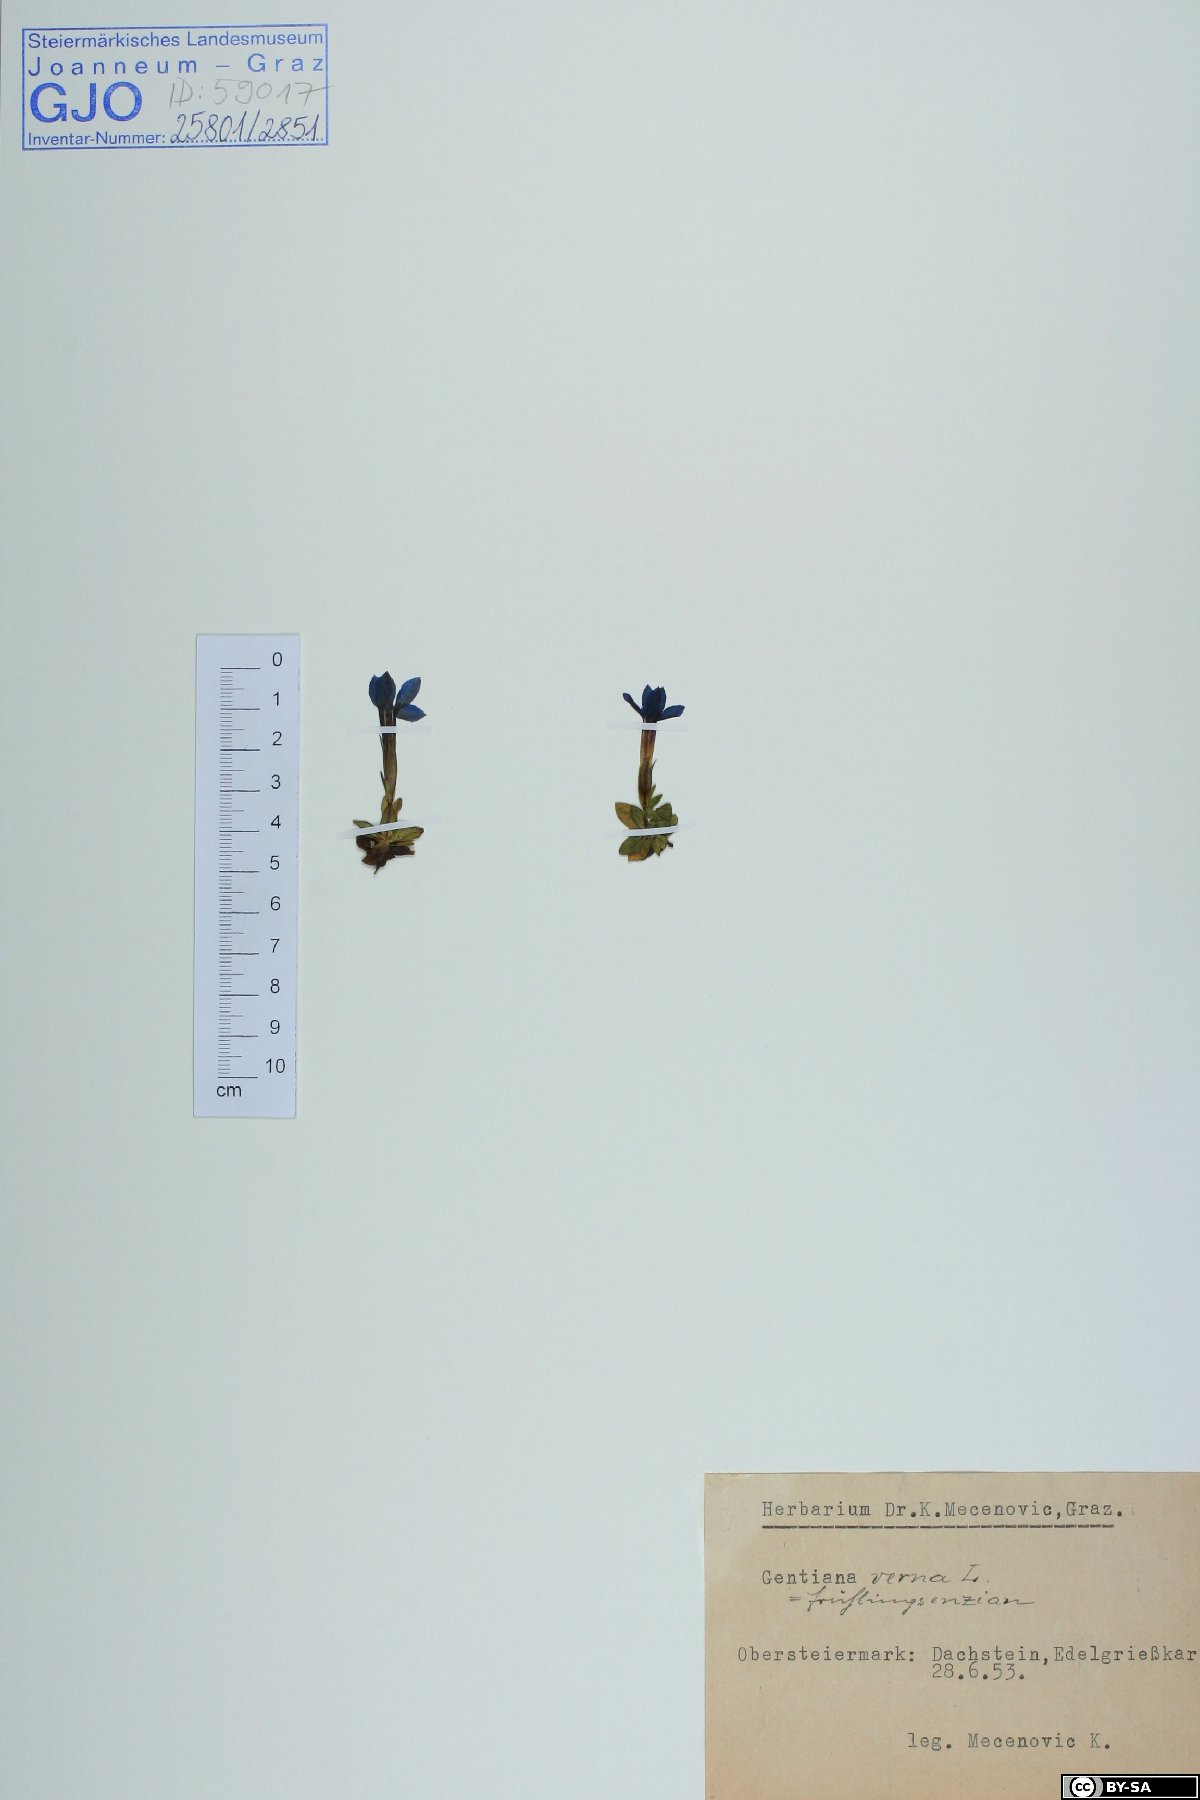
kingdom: Plantae
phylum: Tracheophyta
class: Magnoliopsida
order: Gentianales
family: Gentianaceae
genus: Gentiana
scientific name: Gentiana verna
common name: Spring gentian
